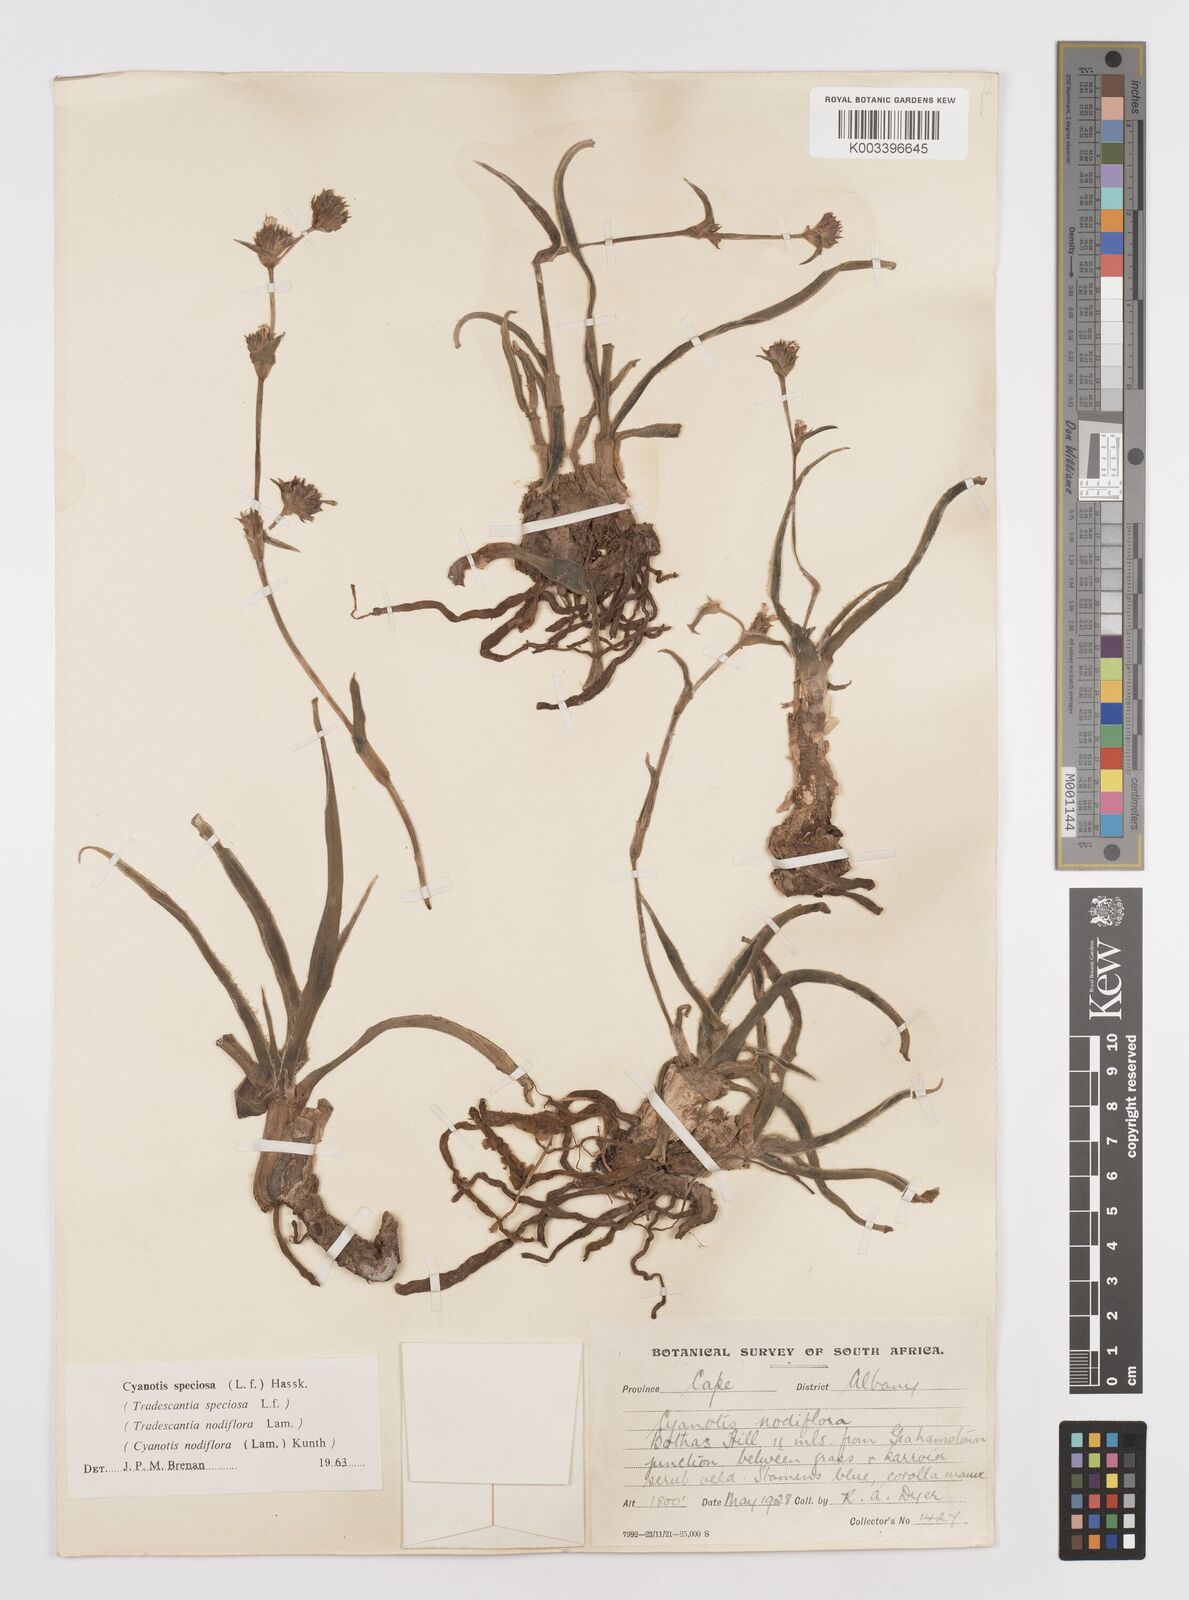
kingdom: Plantae
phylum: Tracheophyta
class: Liliopsida
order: Commelinales
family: Commelinaceae
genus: Cyanotis
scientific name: Cyanotis speciosa
